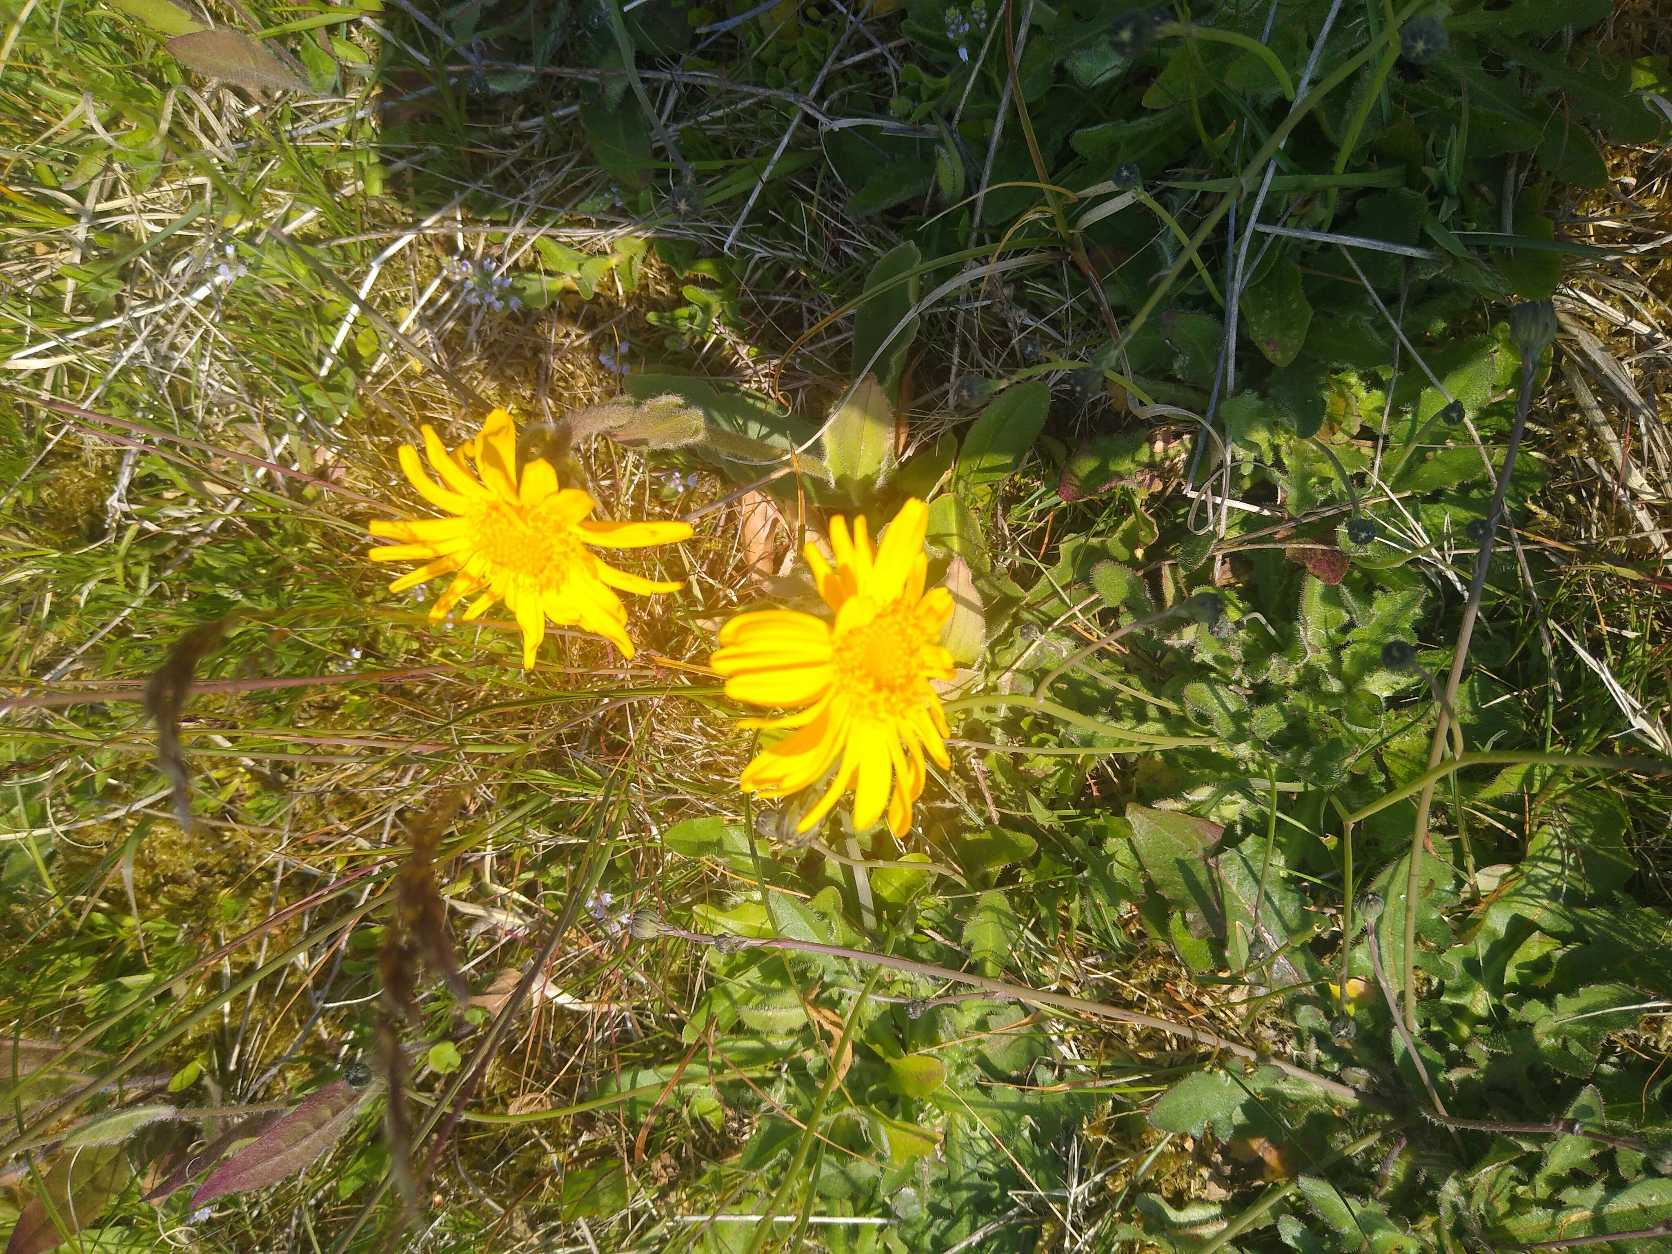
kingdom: Plantae
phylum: Tracheophyta
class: Magnoliopsida
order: Asterales
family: Asteraceae
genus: Arnica
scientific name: Arnica montana
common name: Guldblomme
